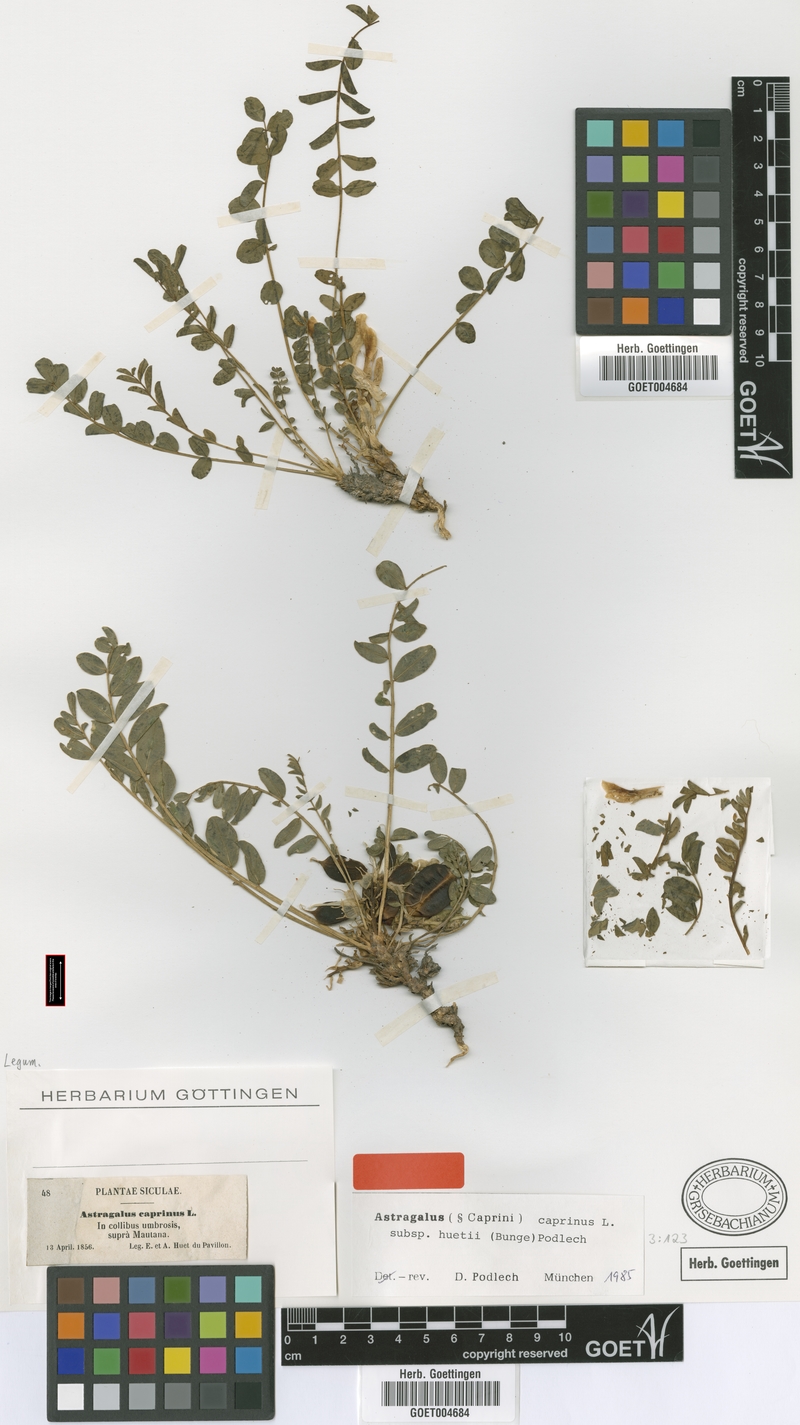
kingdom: Plantae
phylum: Tracheophyta
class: Magnoliopsida
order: Fabales
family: Fabaceae
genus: Astragalus
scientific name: Astragalus caprinus
